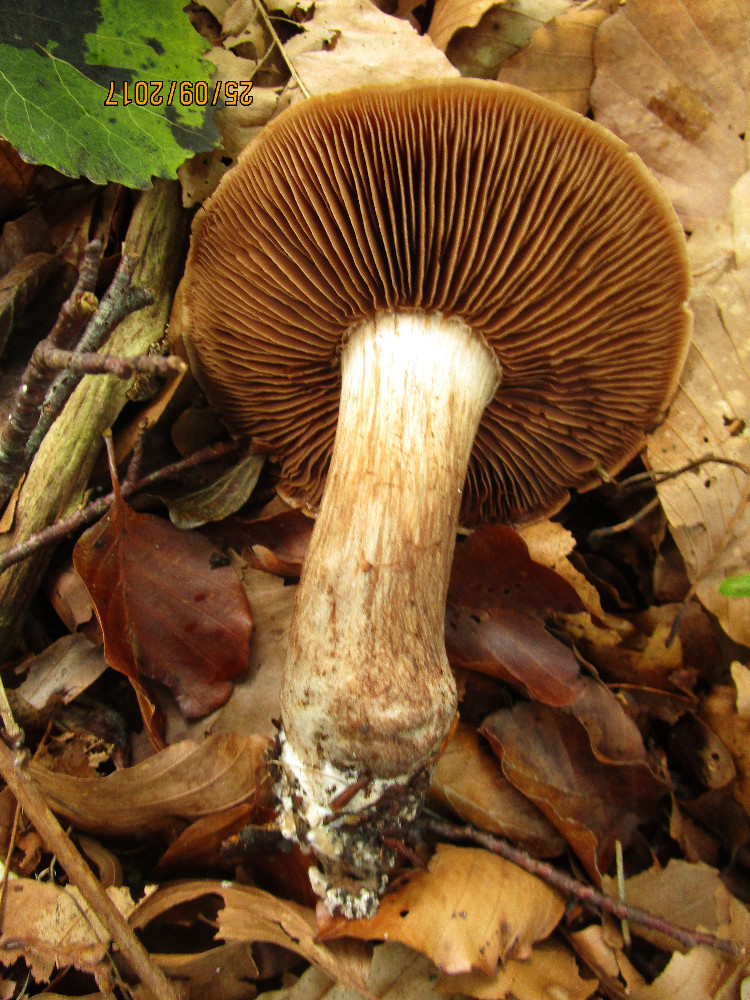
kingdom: Fungi
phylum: Basidiomycota
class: Agaricomycetes
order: Agaricales
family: Cortinariaceae
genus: Cortinarius
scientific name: Cortinarius largus
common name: violetrandet slørhat
